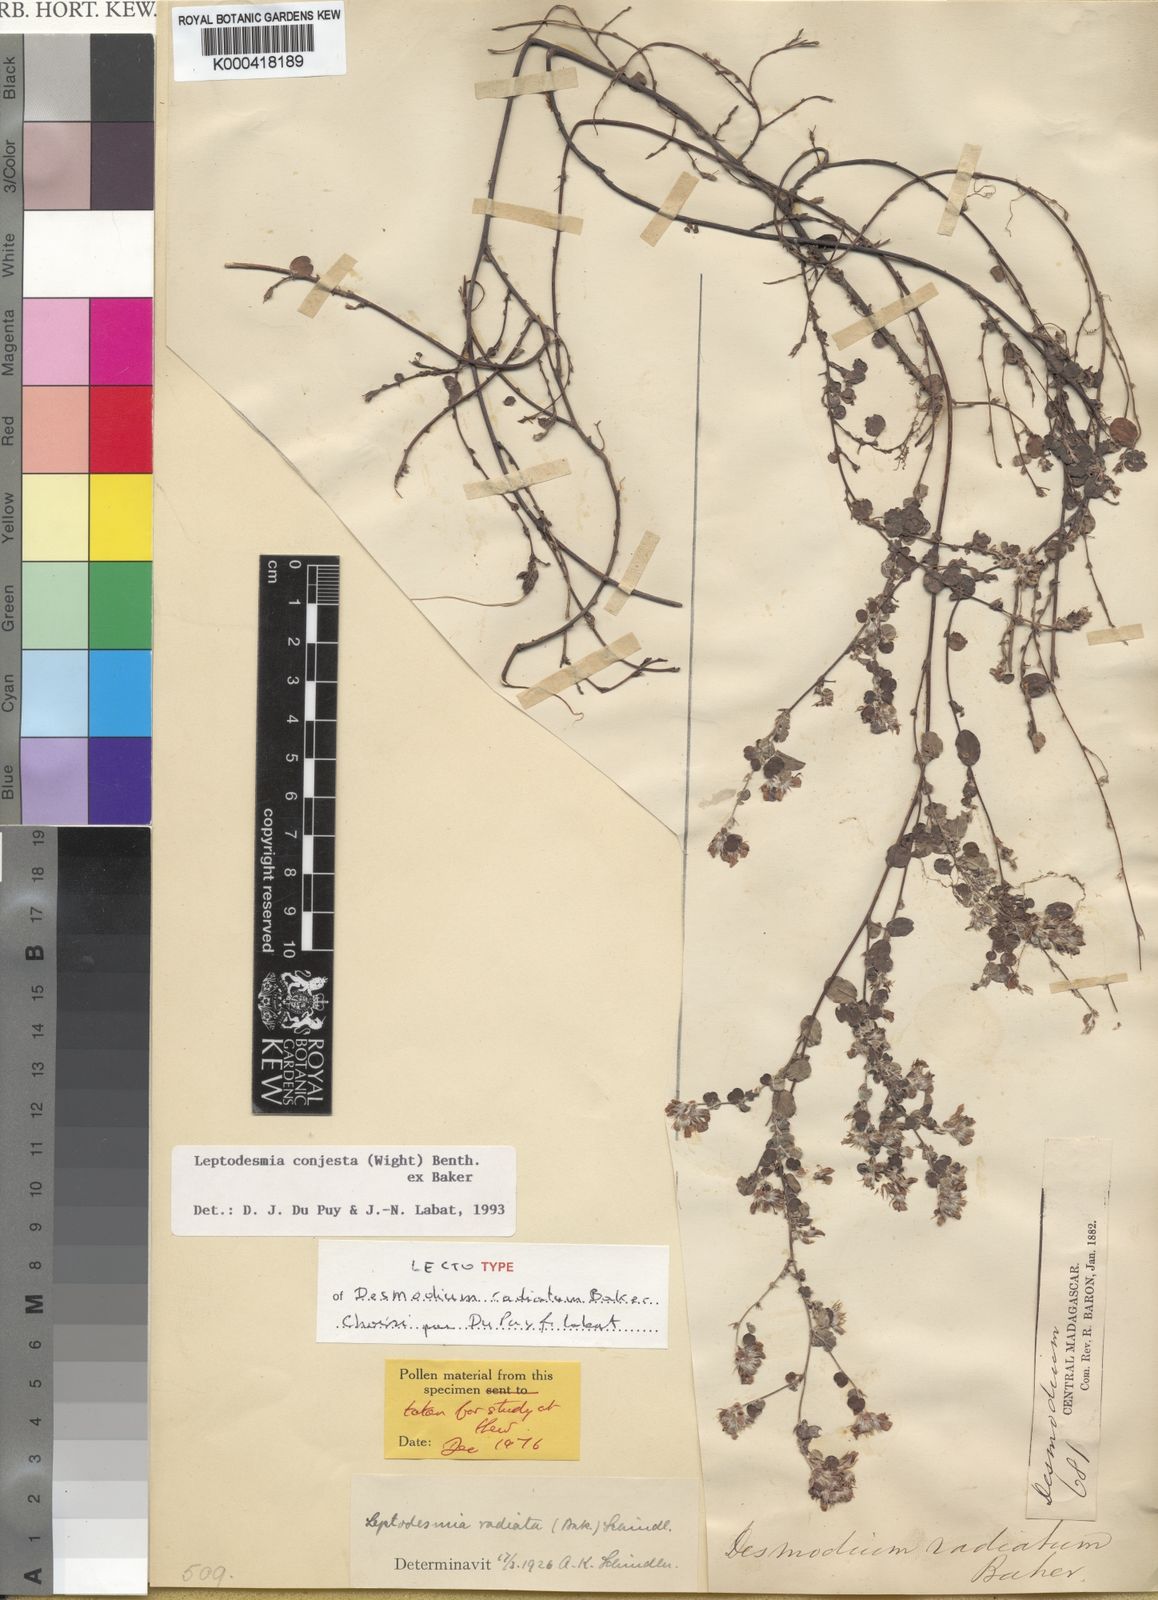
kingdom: Plantae
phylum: Tracheophyta
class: Magnoliopsida
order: Fabales
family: Fabaceae
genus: Leptodesmia
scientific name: Leptodesmia
